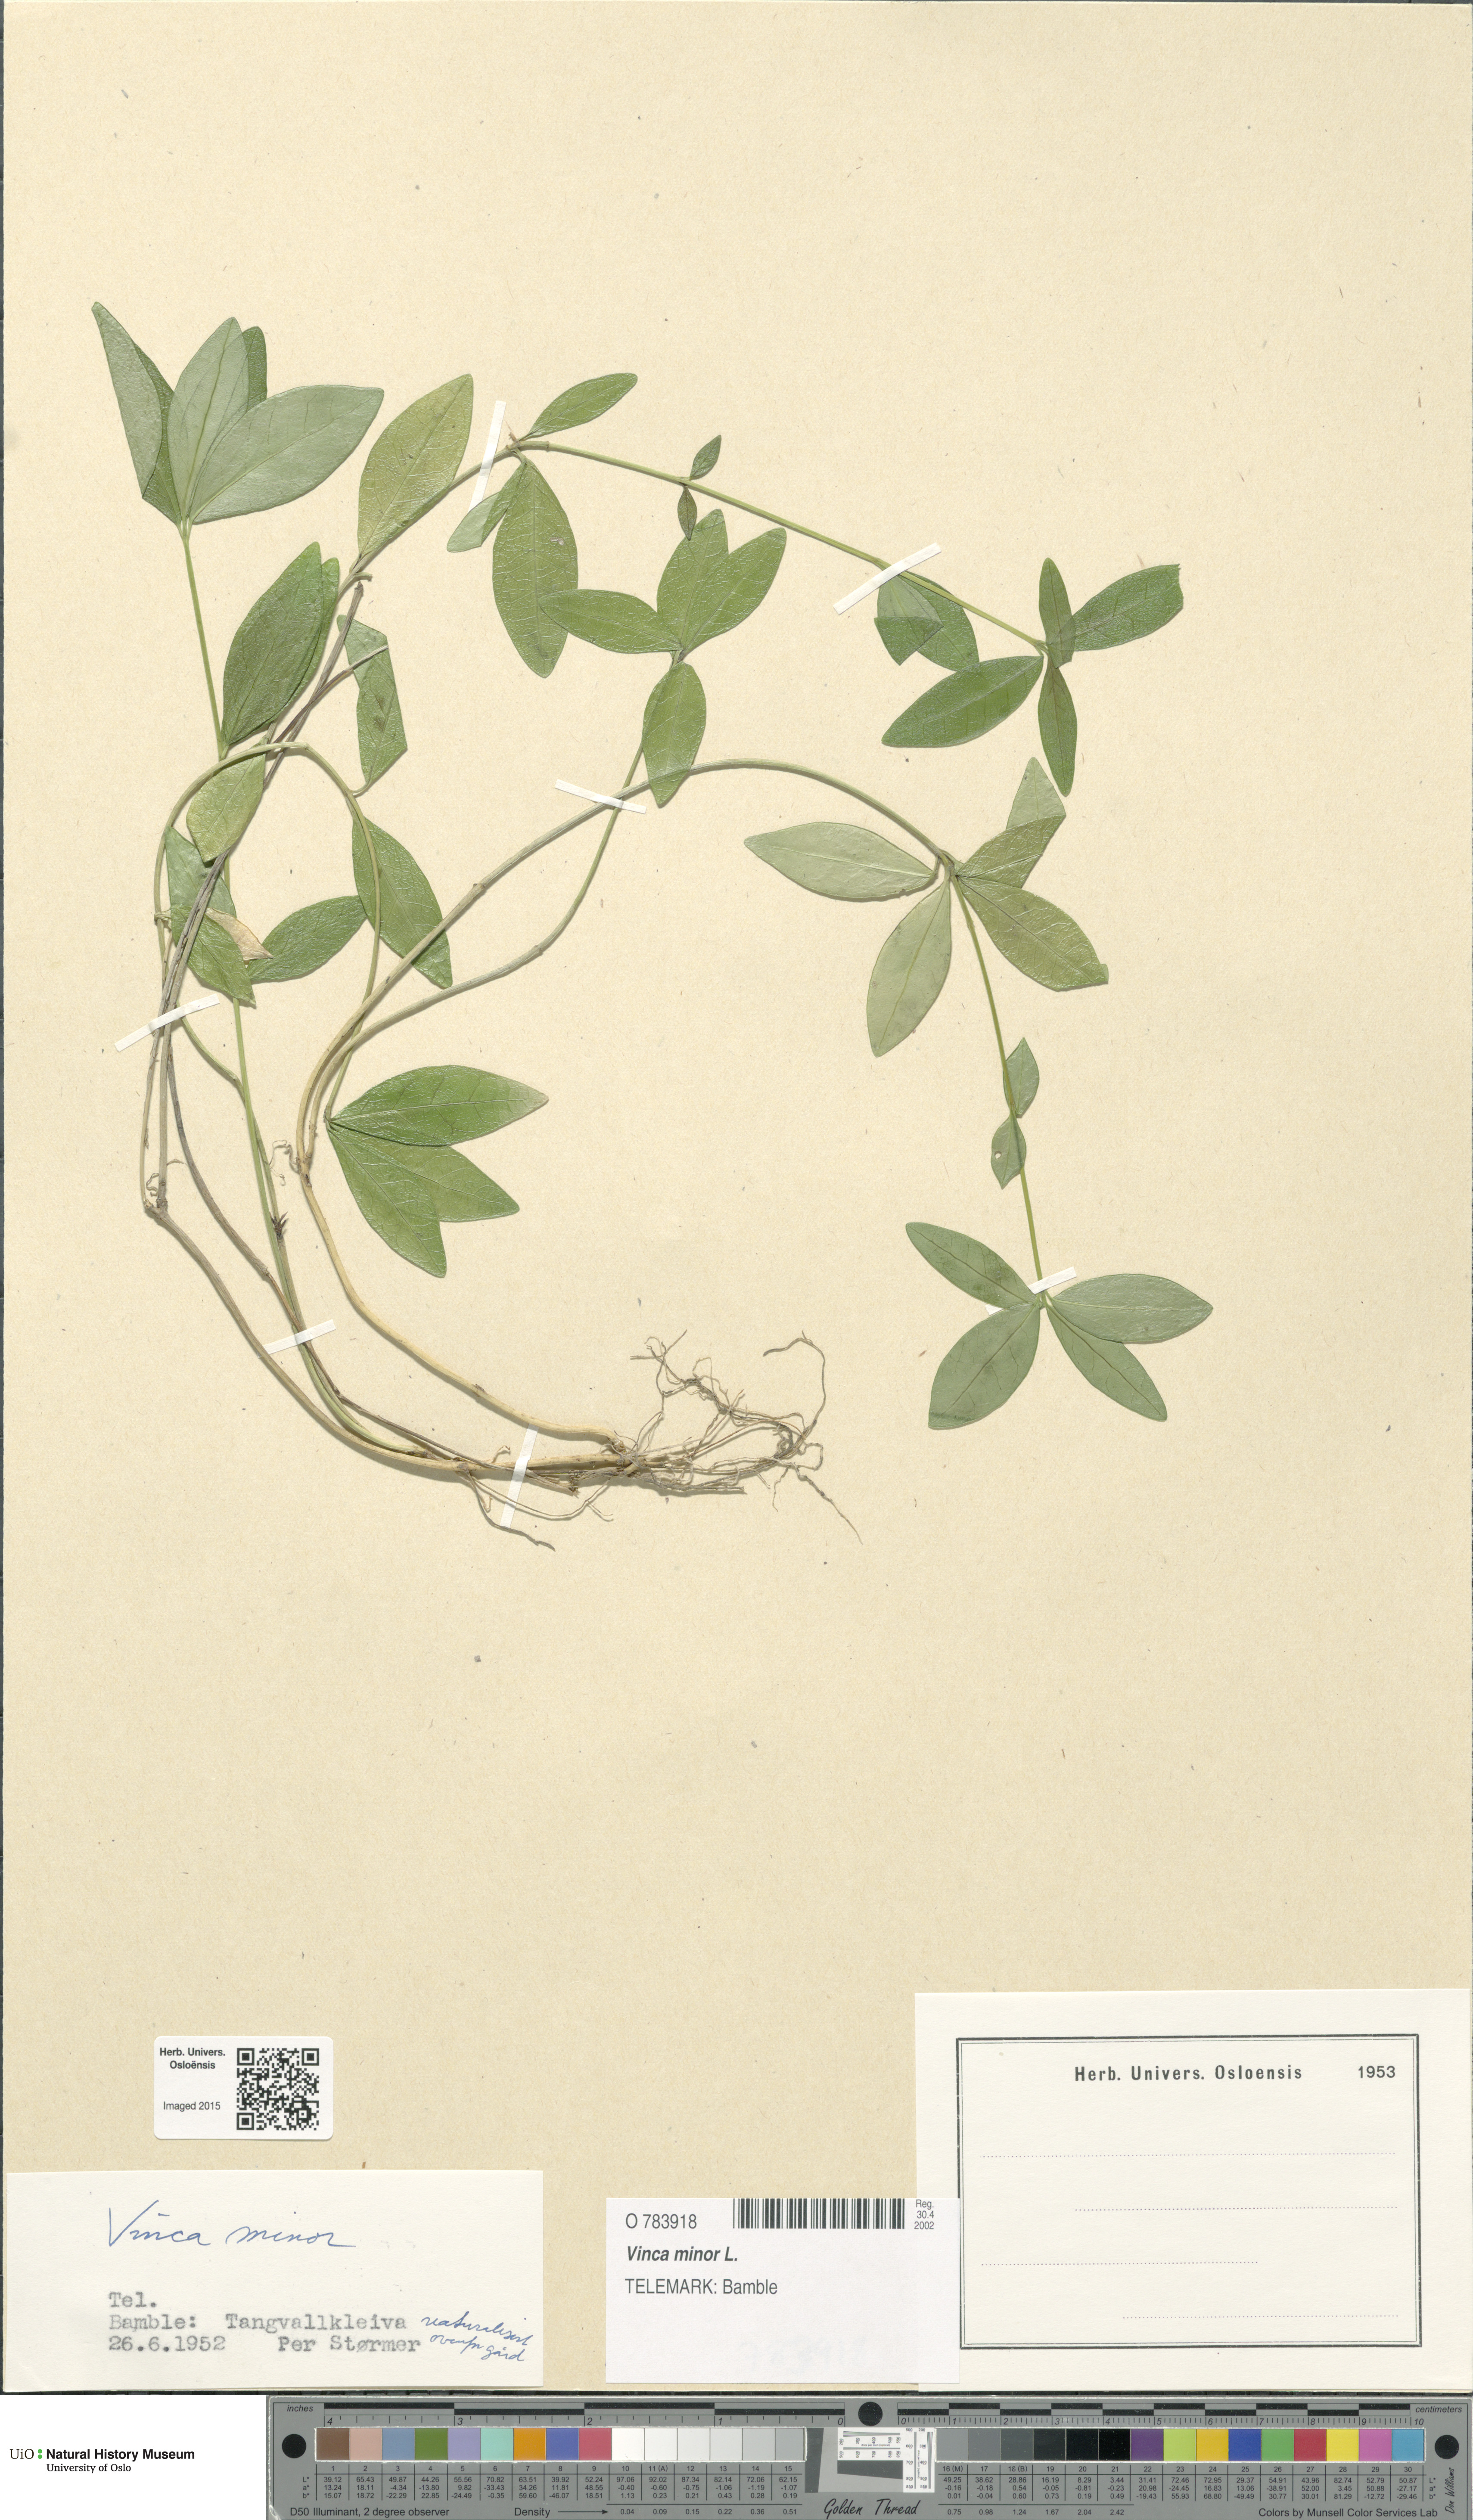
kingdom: Plantae
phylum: Tracheophyta
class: Magnoliopsida
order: Gentianales
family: Apocynaceae
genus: Vinca
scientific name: Vinca minor
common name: Lesser periwinkle
